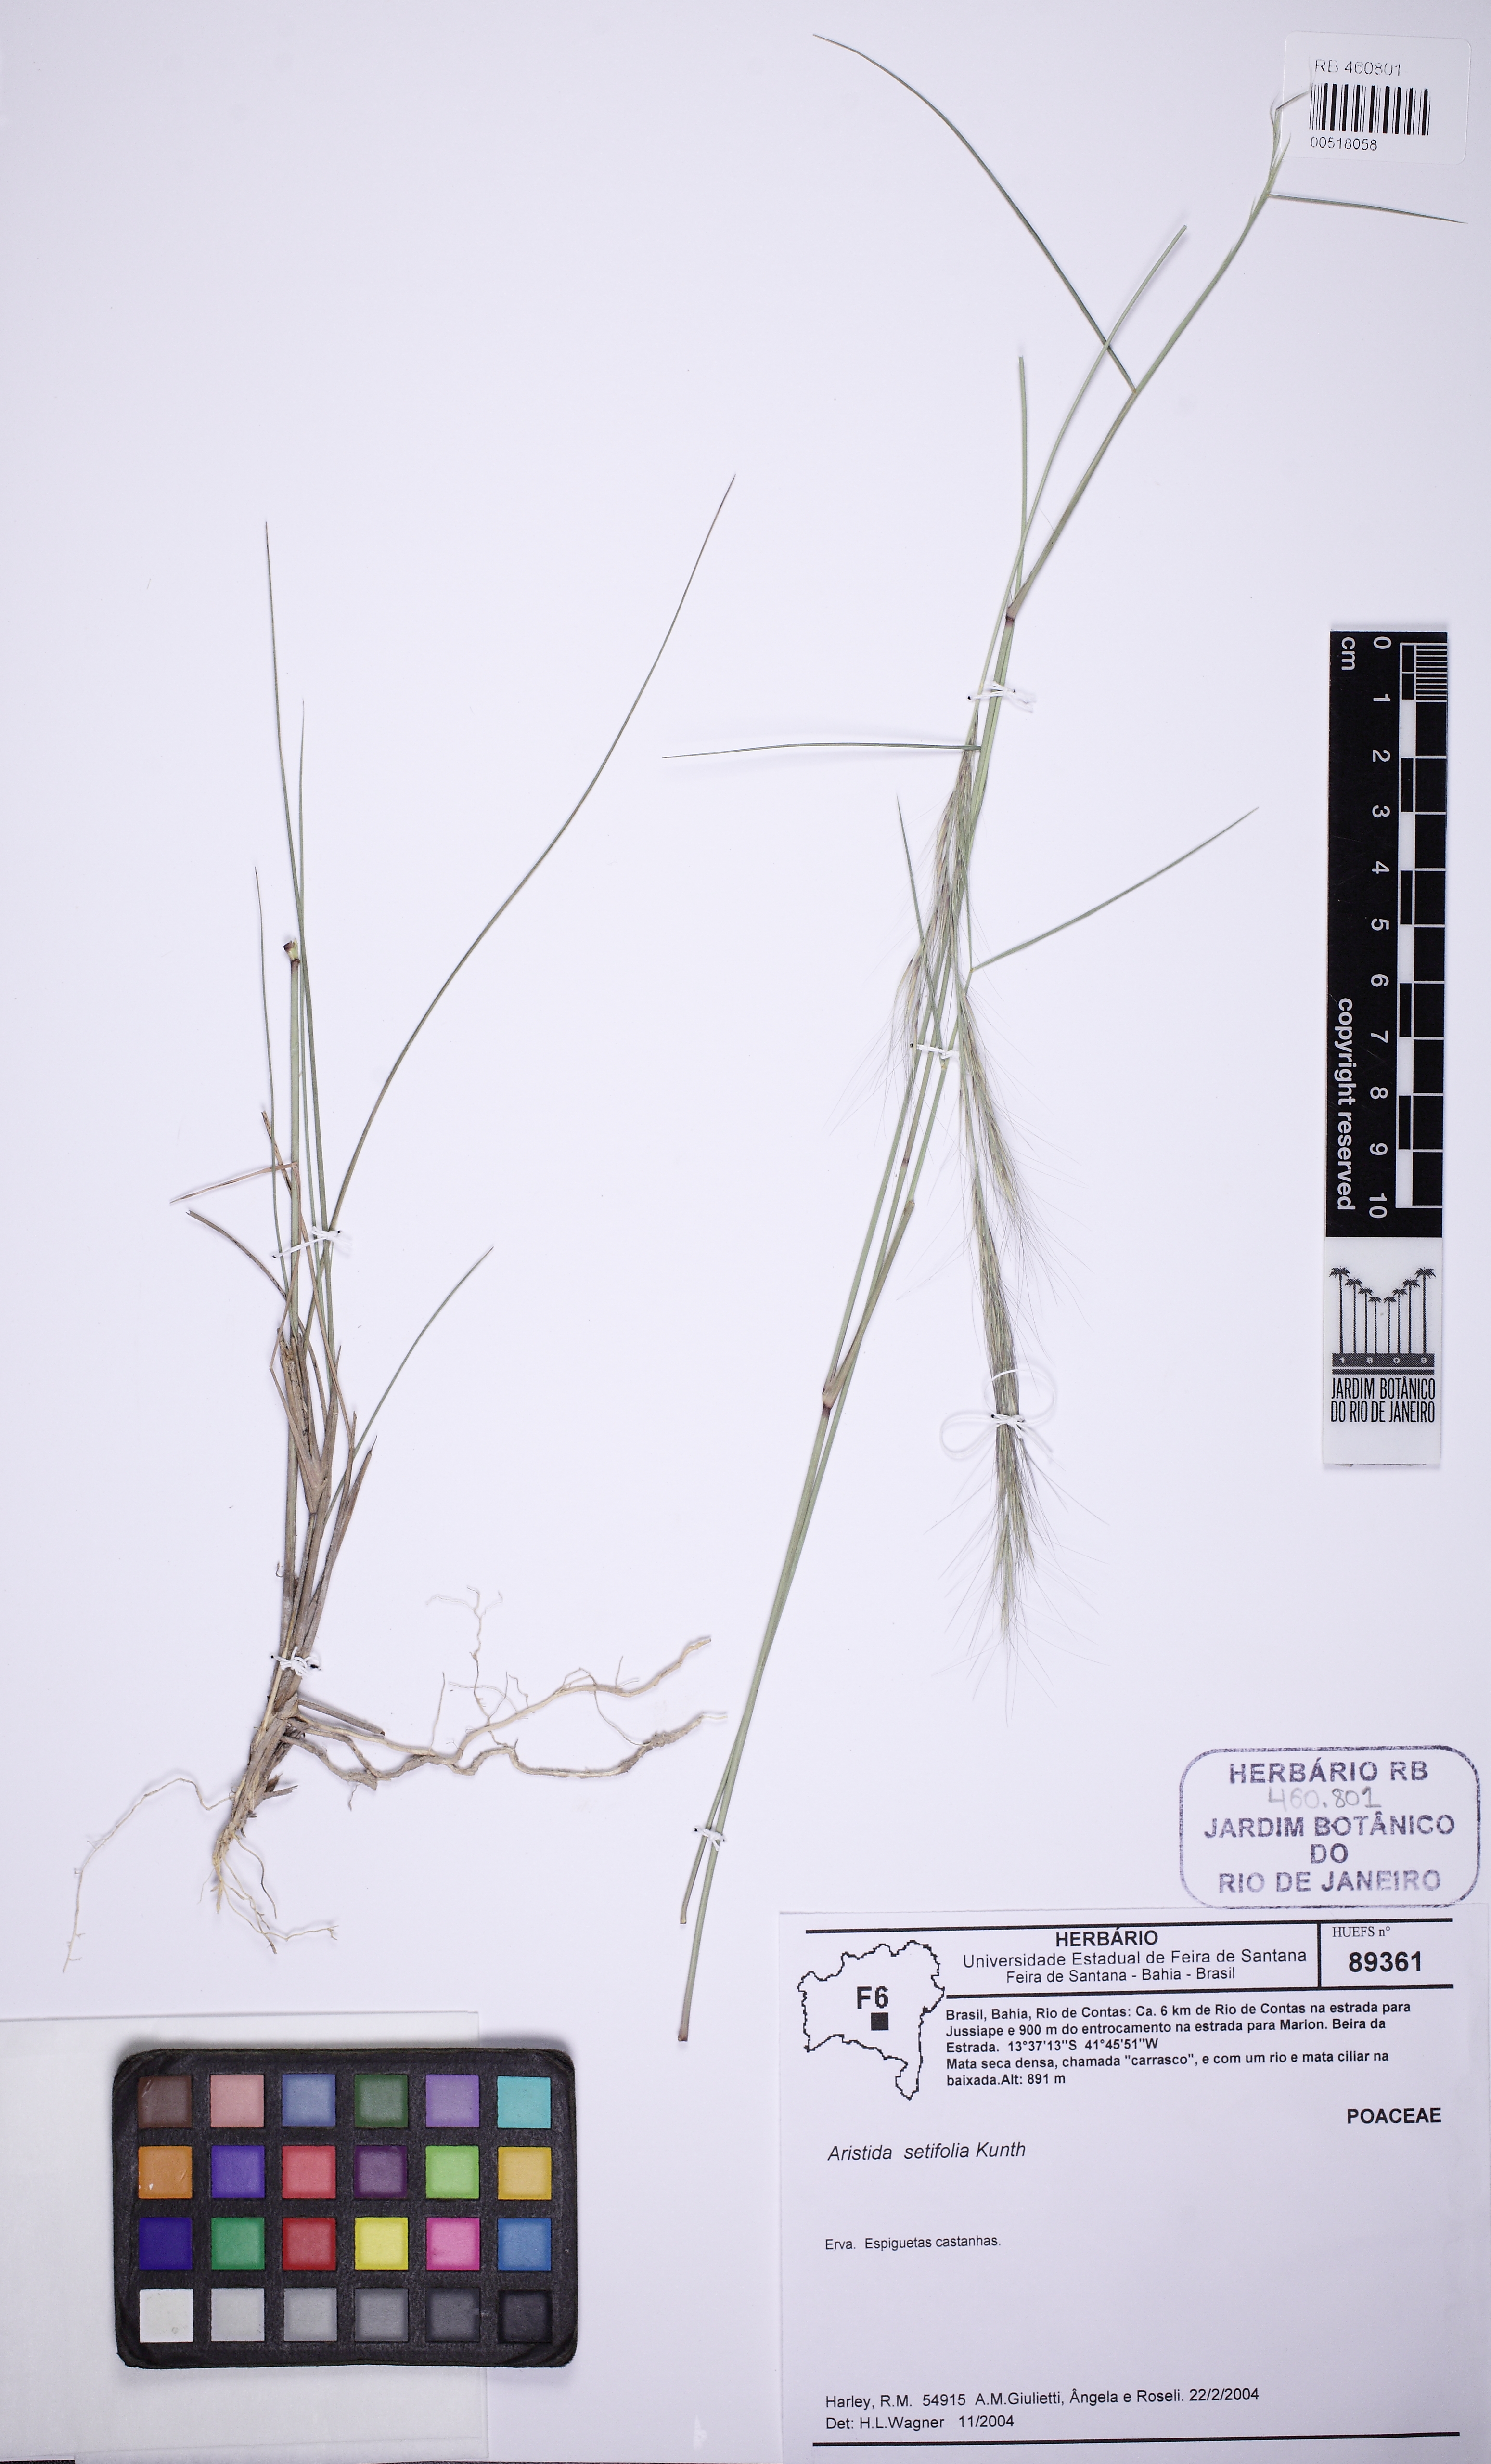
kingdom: Plantae
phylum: Tracheophyta
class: Liliopsida
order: Poales
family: Poaceae
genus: Aristida
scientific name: Aristida setifolia
